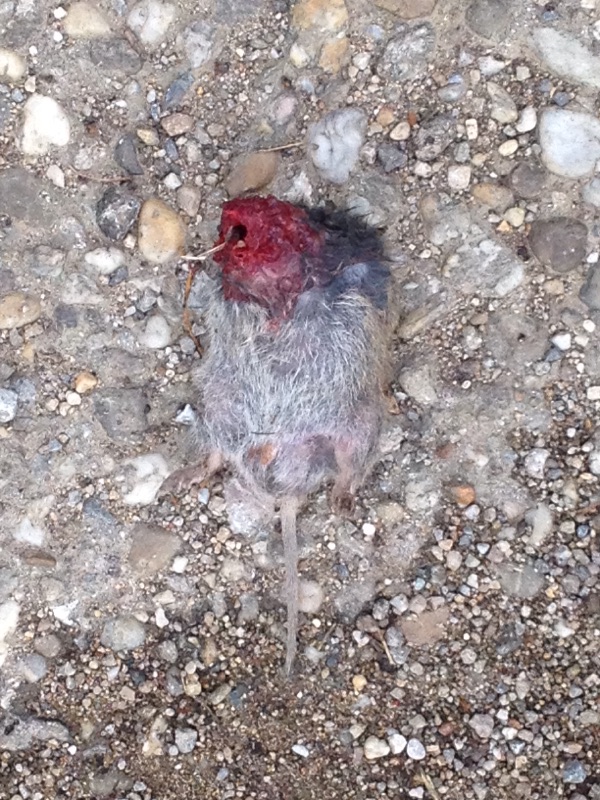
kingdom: Animalia
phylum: Chordata
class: Mammalia
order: Rodentia
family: Cricetidae
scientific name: Cricetidae
